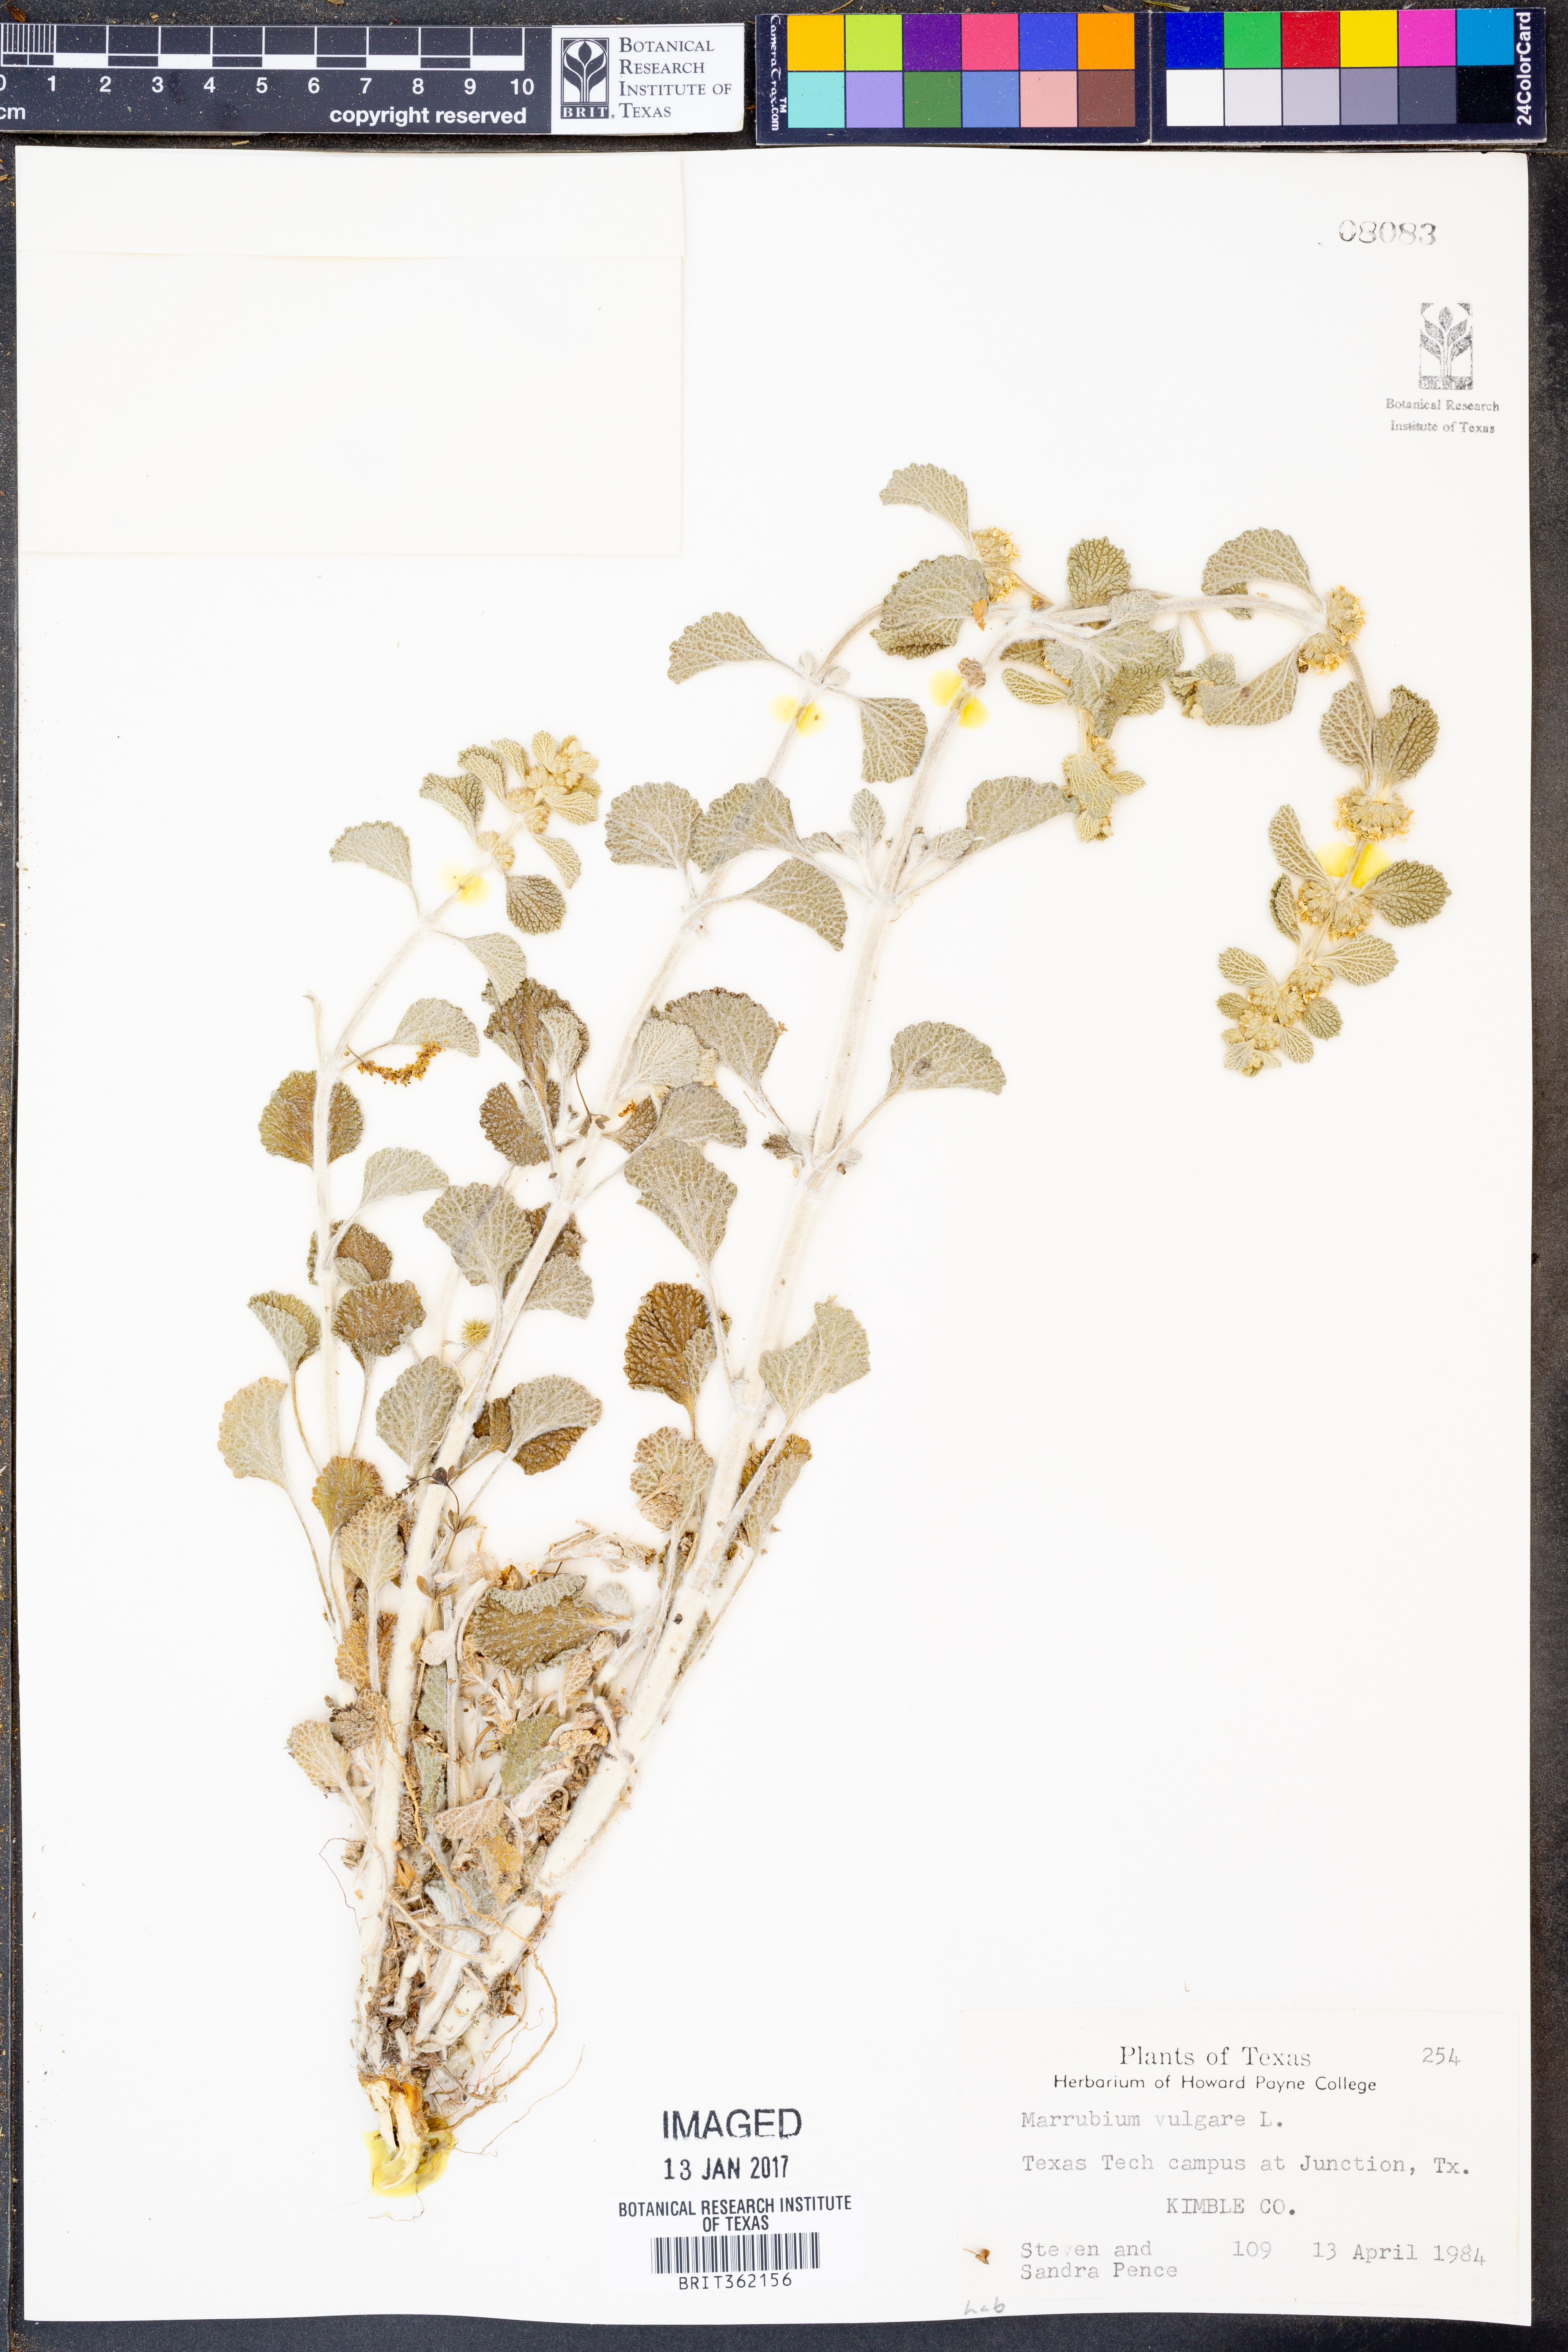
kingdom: Plantae
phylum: Tracheophyta
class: Magnoliopsida
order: Lamiales
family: Lamiaceae
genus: Marrubium
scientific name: Marrubium vulgare
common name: Horehound
